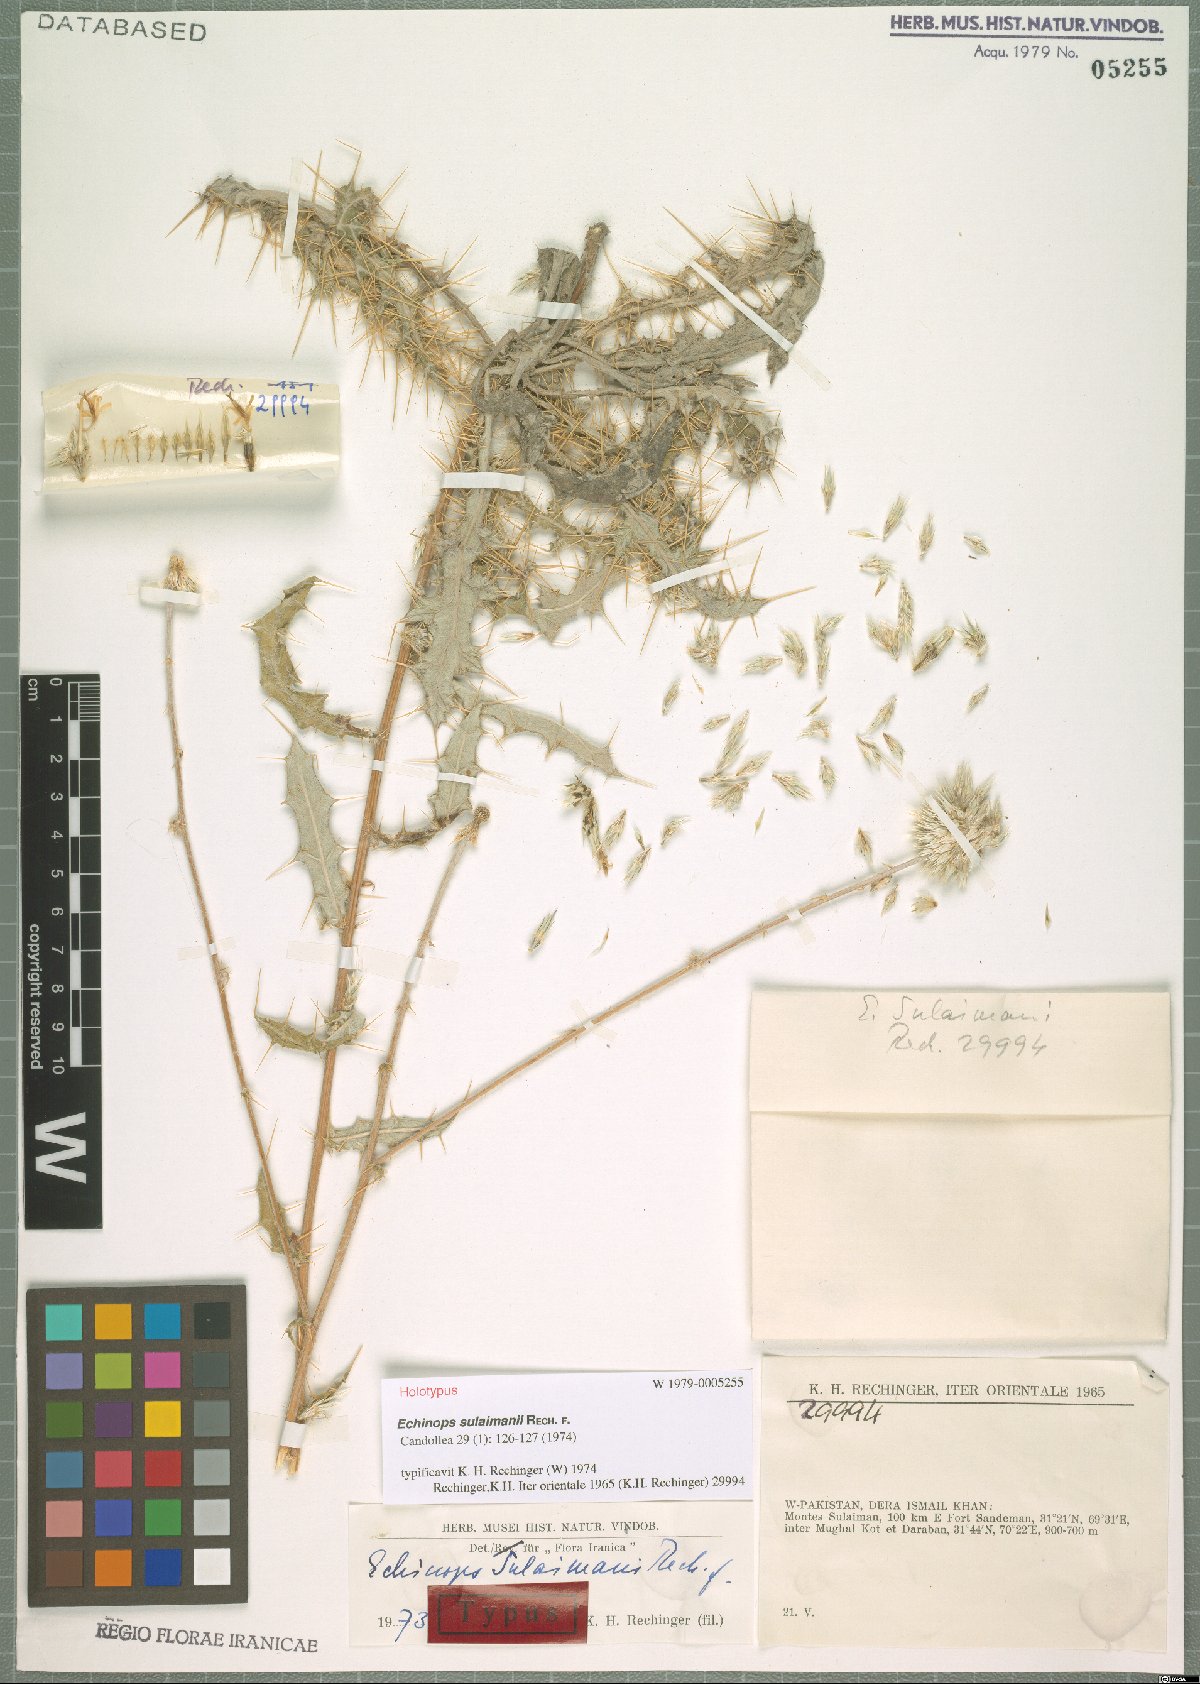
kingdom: Plantae
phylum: Tracheophyta
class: Magnoliopsida
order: Asterales
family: Asteraceae
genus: Echinops
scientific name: Echinops sulaimanii
